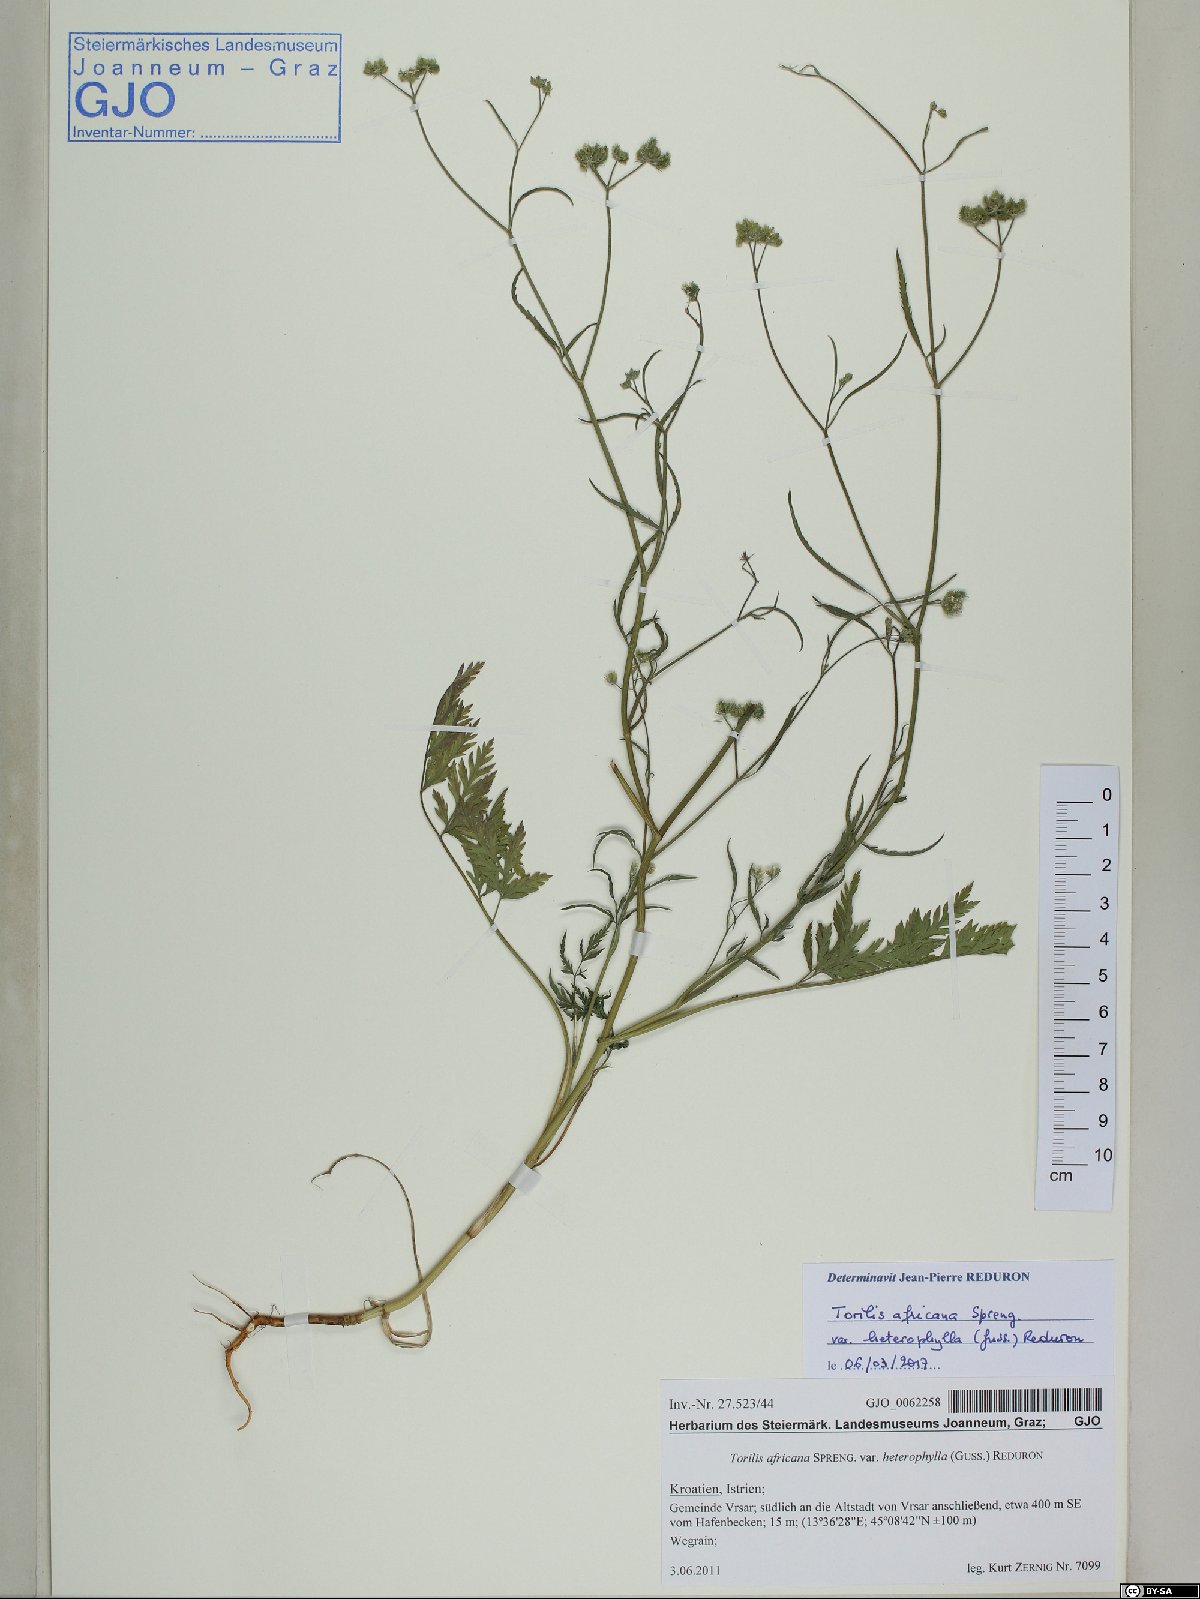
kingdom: Plantae
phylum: Tracheophyta
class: Magnoliopsida
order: Apiales
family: Apiaceae
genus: Torilis
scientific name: Torilis africana
